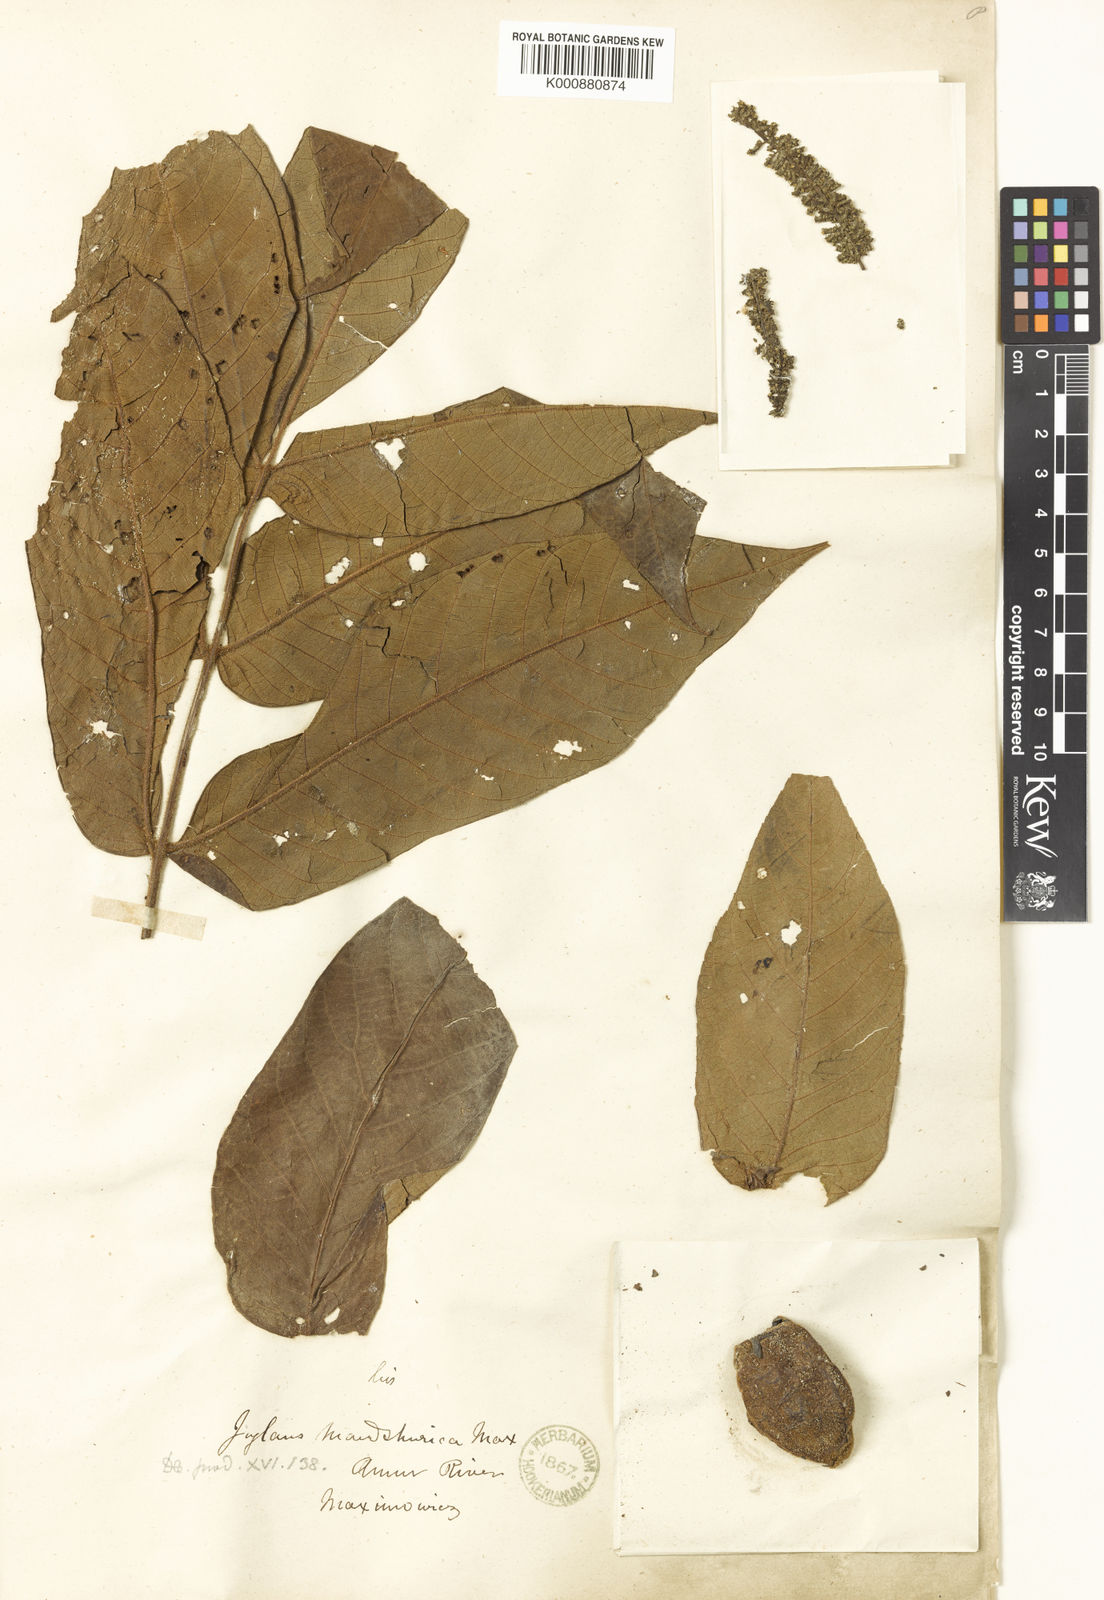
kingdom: Plantae
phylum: Tracheophyta
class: Magnoliopsida
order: Fagales
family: Juglandaceae
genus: Juglans
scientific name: Juglans mandshurica
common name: Manchurian walnut
